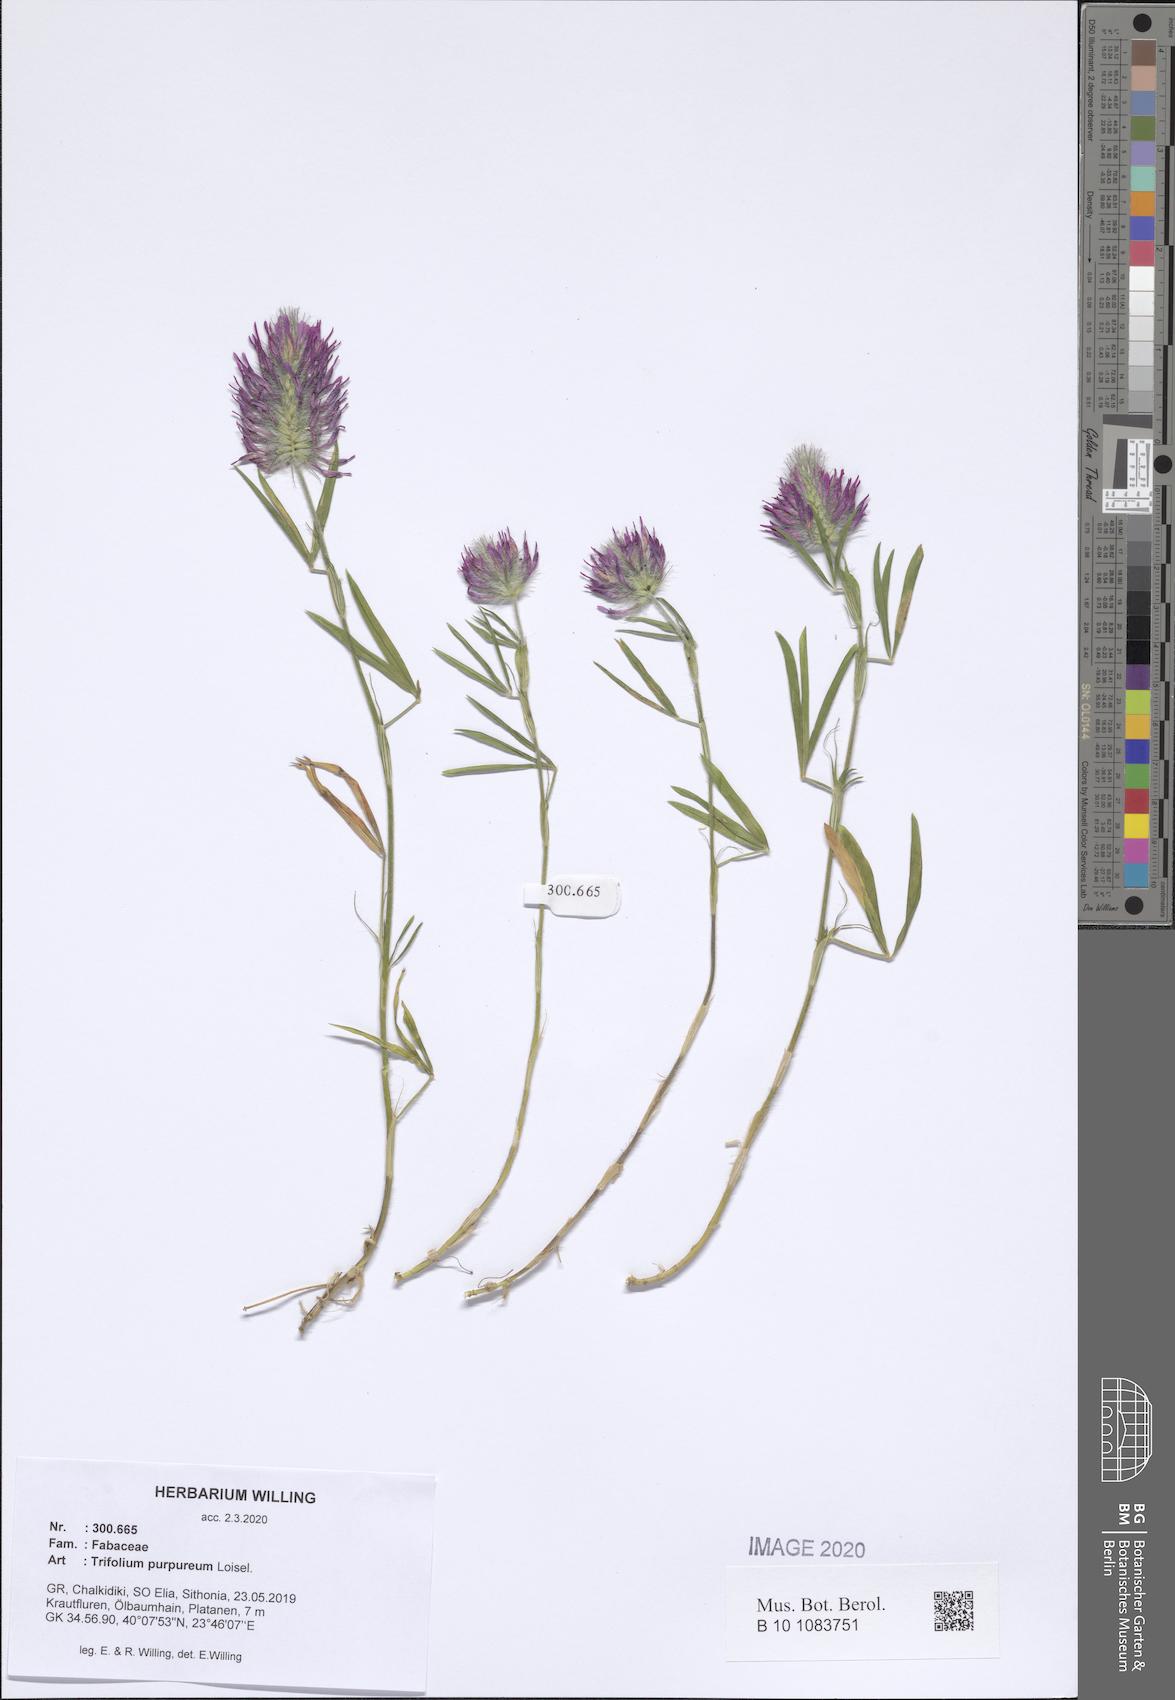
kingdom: Plantae
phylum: Tracheophyta
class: Magnoliopsida
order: Fabales
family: Fabaceae
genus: Trifolium
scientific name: Trifolium purpureum
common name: Purple clover
